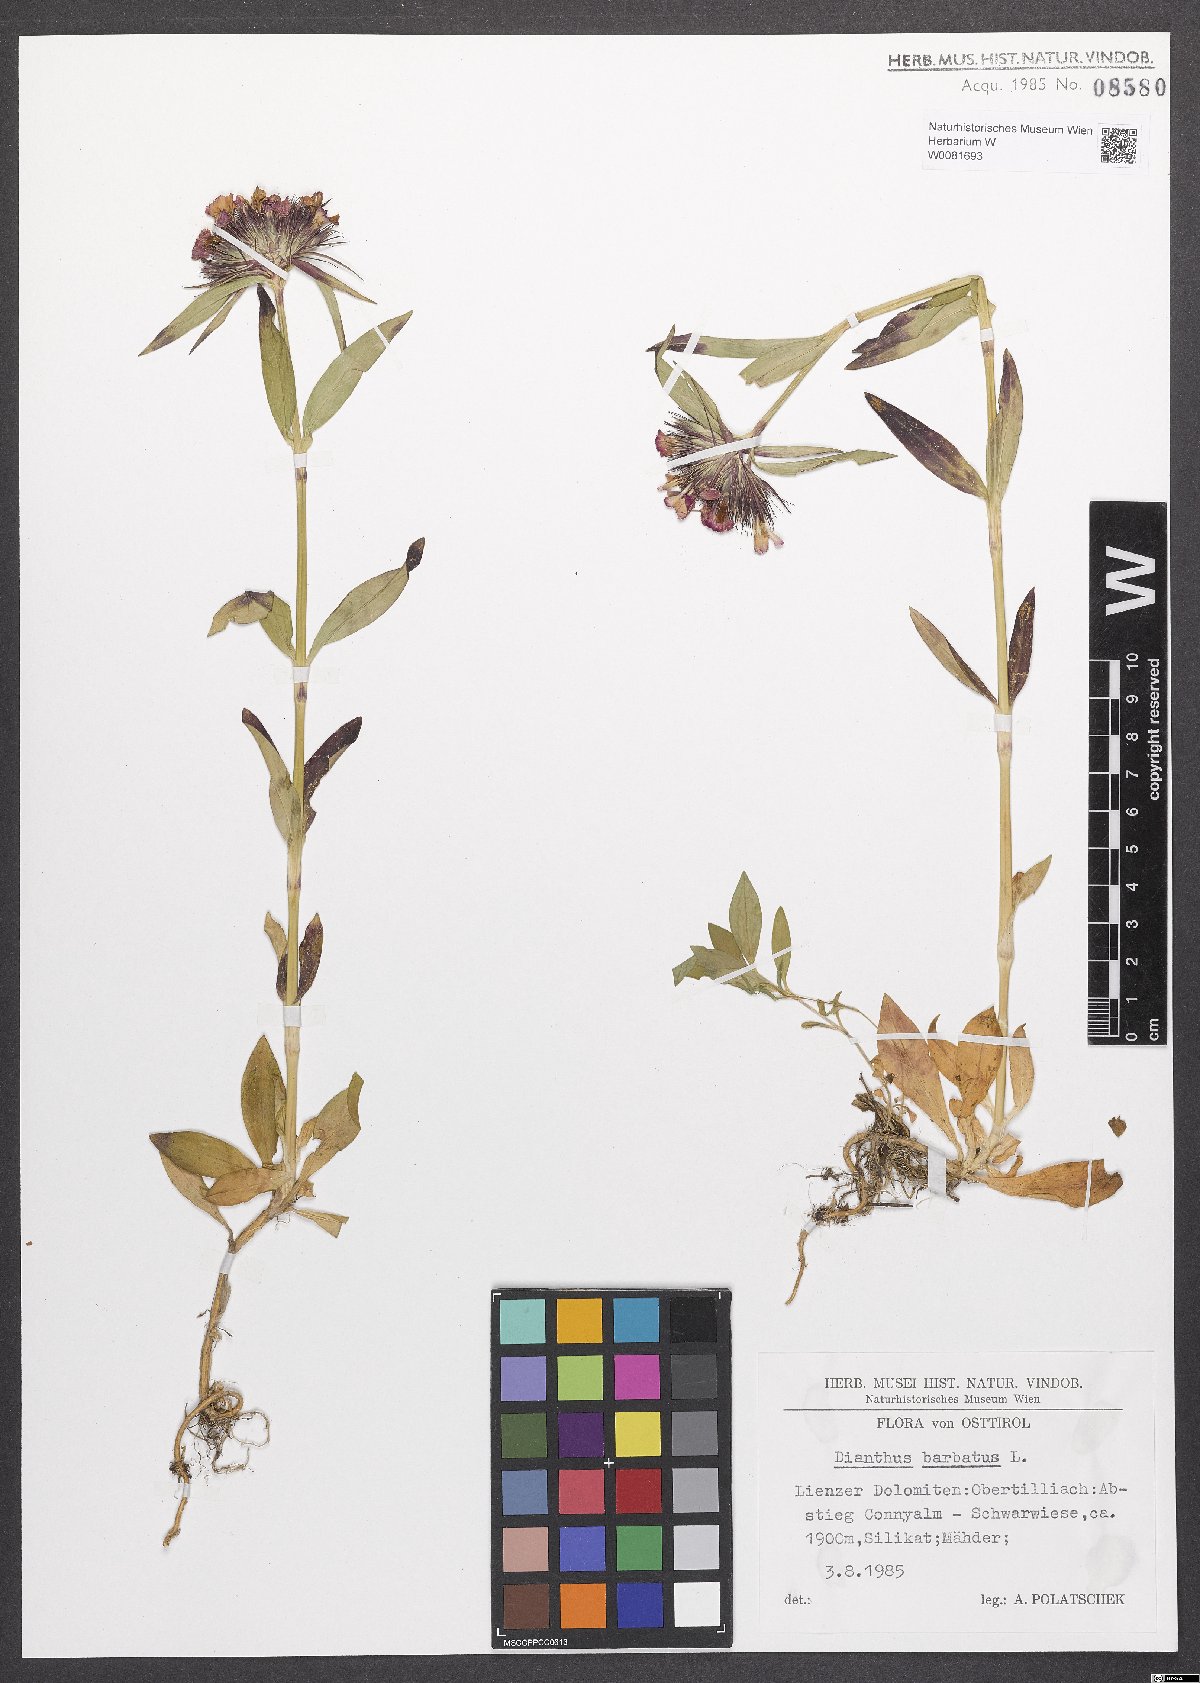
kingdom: Plantae
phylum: Tracheophyta
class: Magnoliopsida
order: Caryophyllales
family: Caryophyllaceae
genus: Dianthus
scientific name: Dianthus barbatus
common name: Sweet-william
